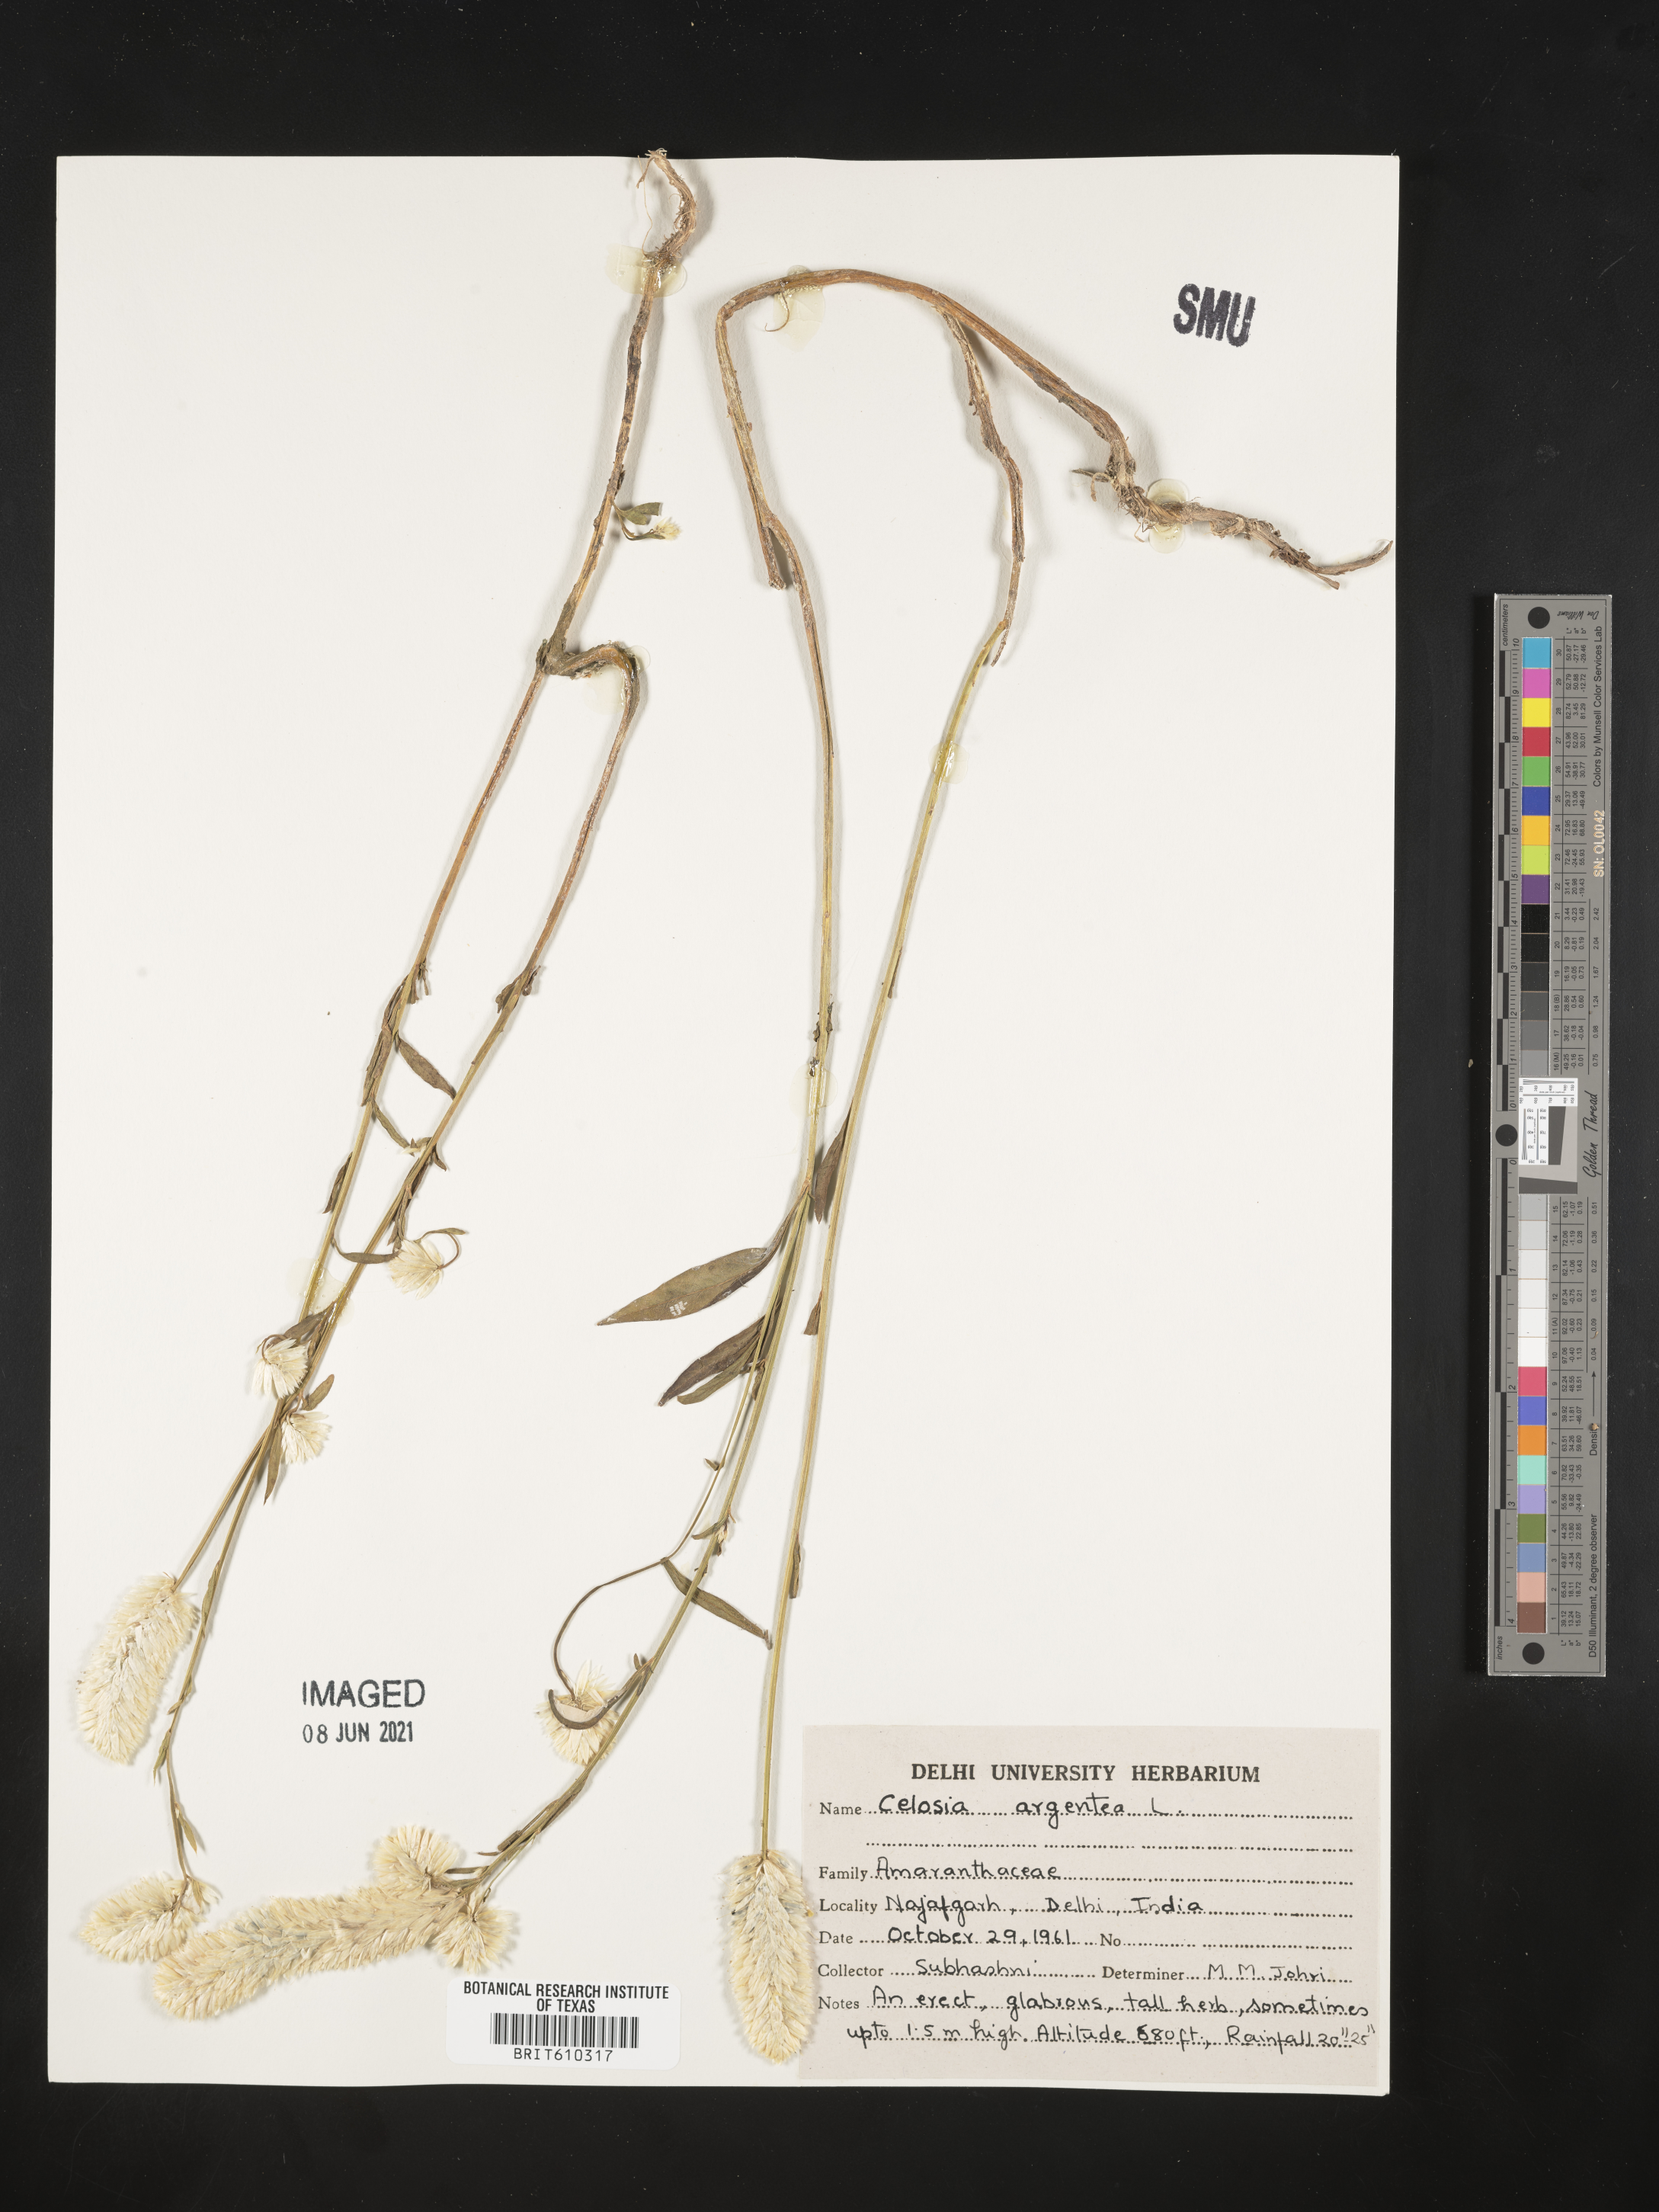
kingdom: Plantae
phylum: Tracheophyta
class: Magnoliopsida
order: Caryophyllales
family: Amaranthaceae
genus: Celosia
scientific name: Celosia argentea
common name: Feather cockscomb
